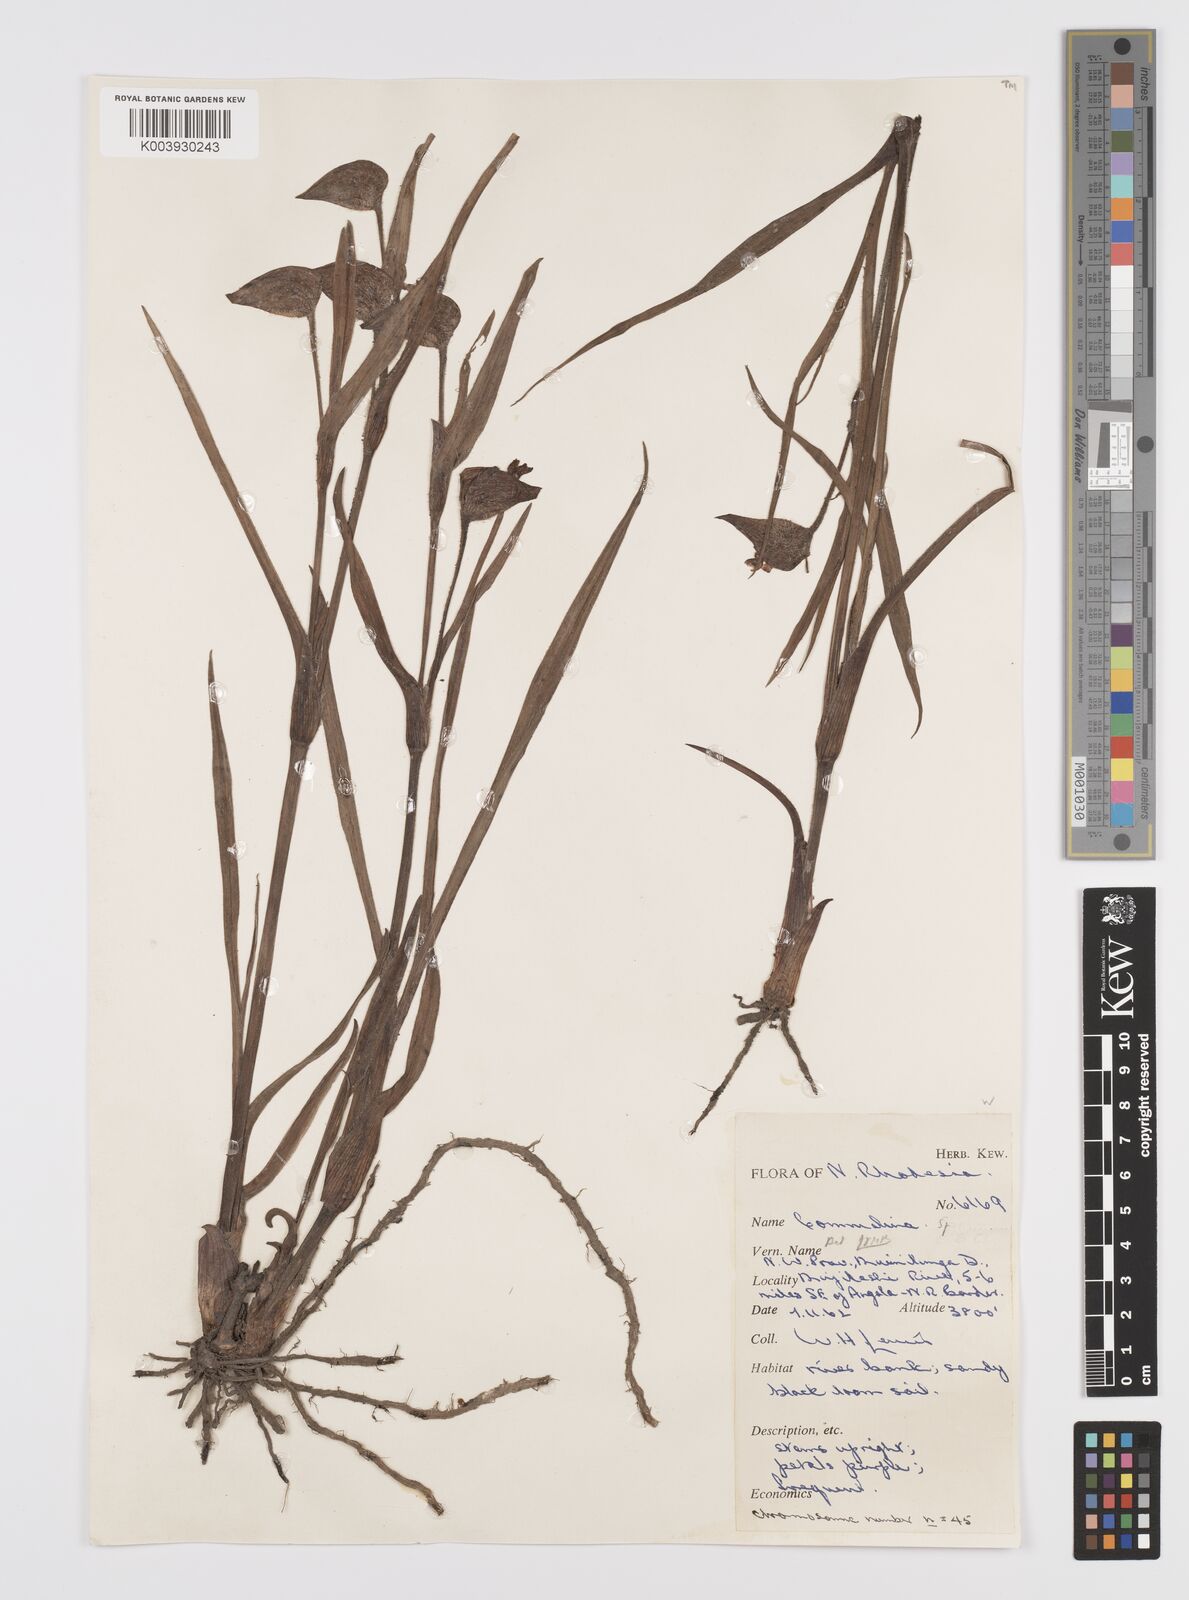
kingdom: Plantae
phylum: Tracheophyta
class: Liliopsida
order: Commelinales
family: Commelinaceae
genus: Commelina
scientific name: Commelina schweinfurthii
